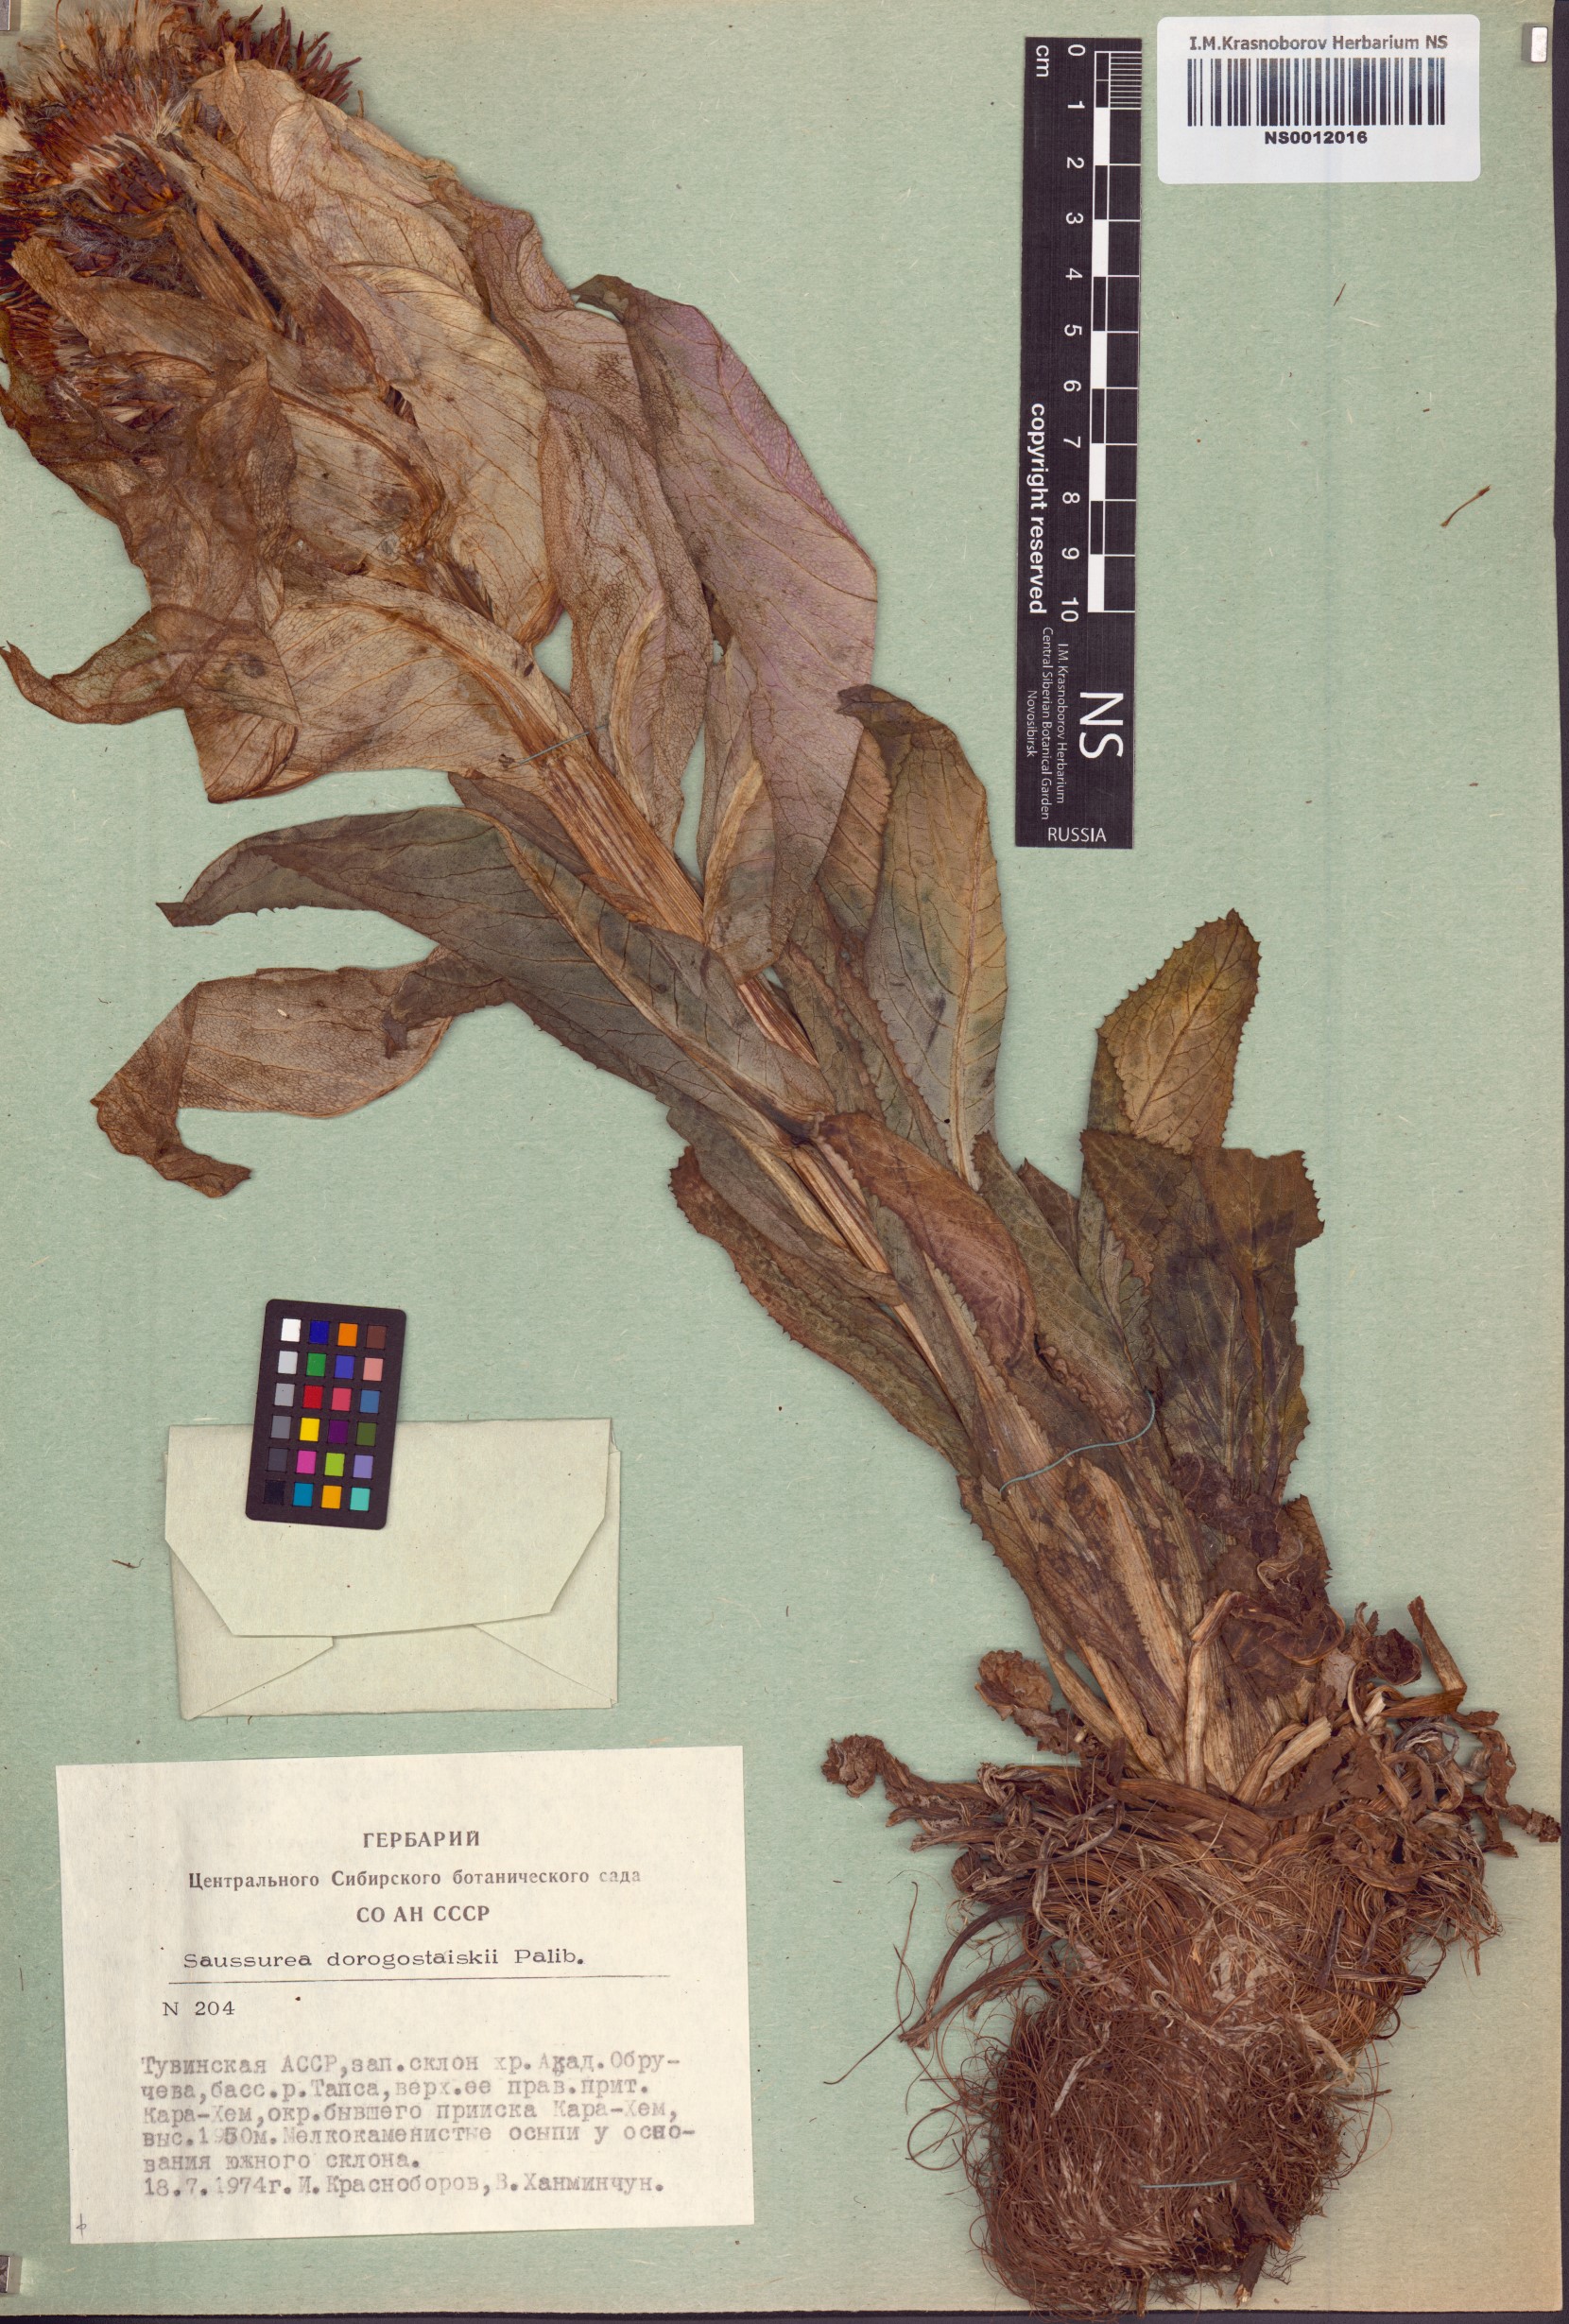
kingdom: Plantae
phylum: Tracheophyta
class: Magnoliopsida
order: Asterales
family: Asteraceae
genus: Saussurea
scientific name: Saussurea involucrata
